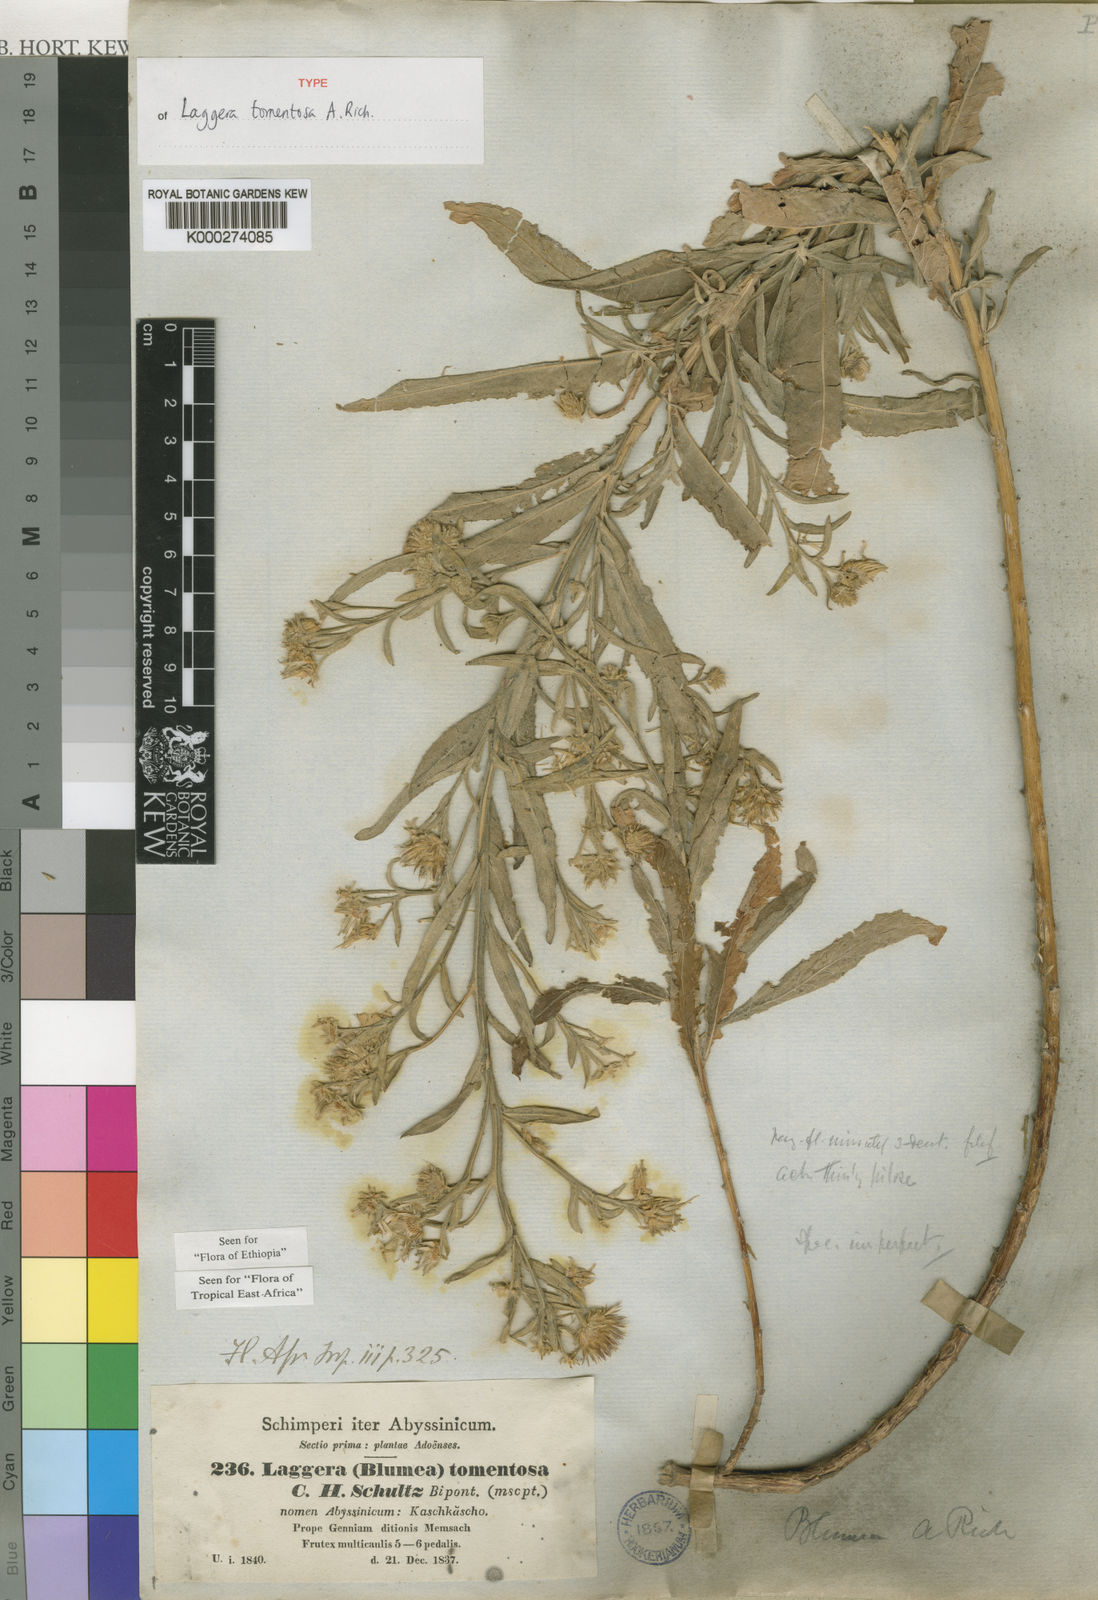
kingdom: Plantae
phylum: Tracheophyta
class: Magnoliopsida
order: Asterales
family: Asteraceae
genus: Laggera
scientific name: Laggera
